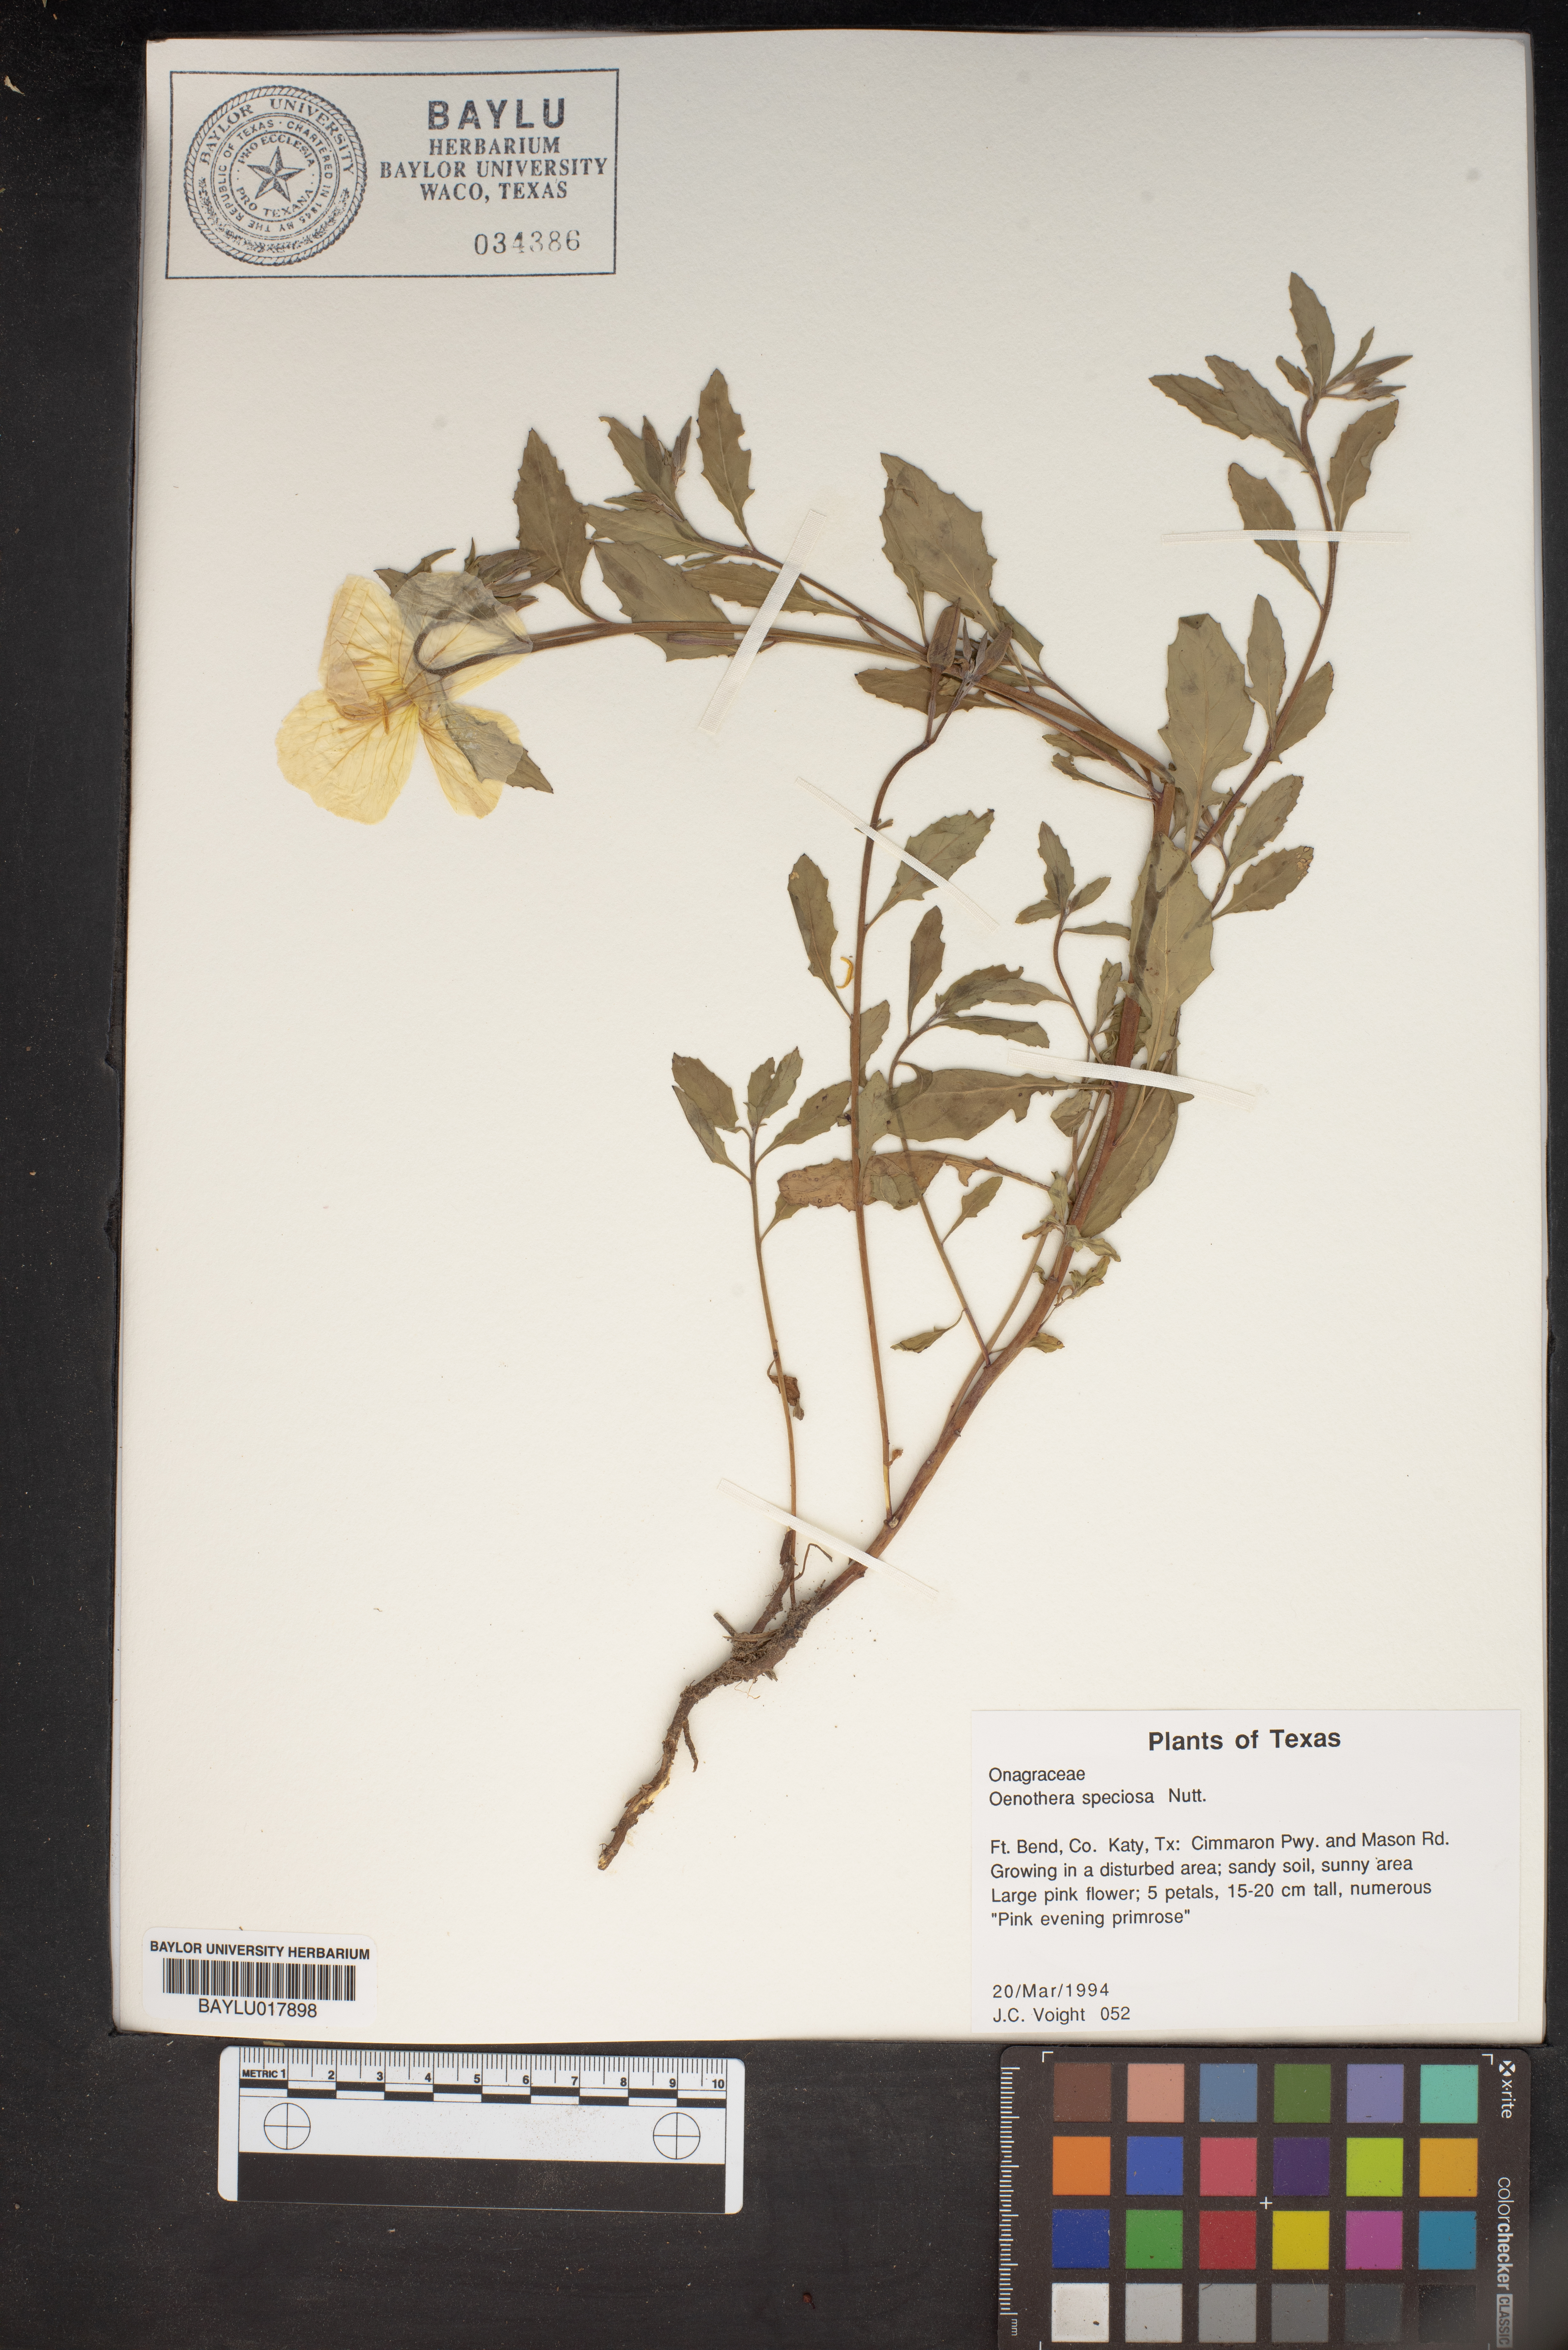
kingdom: Plantae
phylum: Tracheophyta
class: Magnoliopsida
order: Myrtales
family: Onagraceae
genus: Oenothera
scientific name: Oenothera speciosa
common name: White evening-primrose
